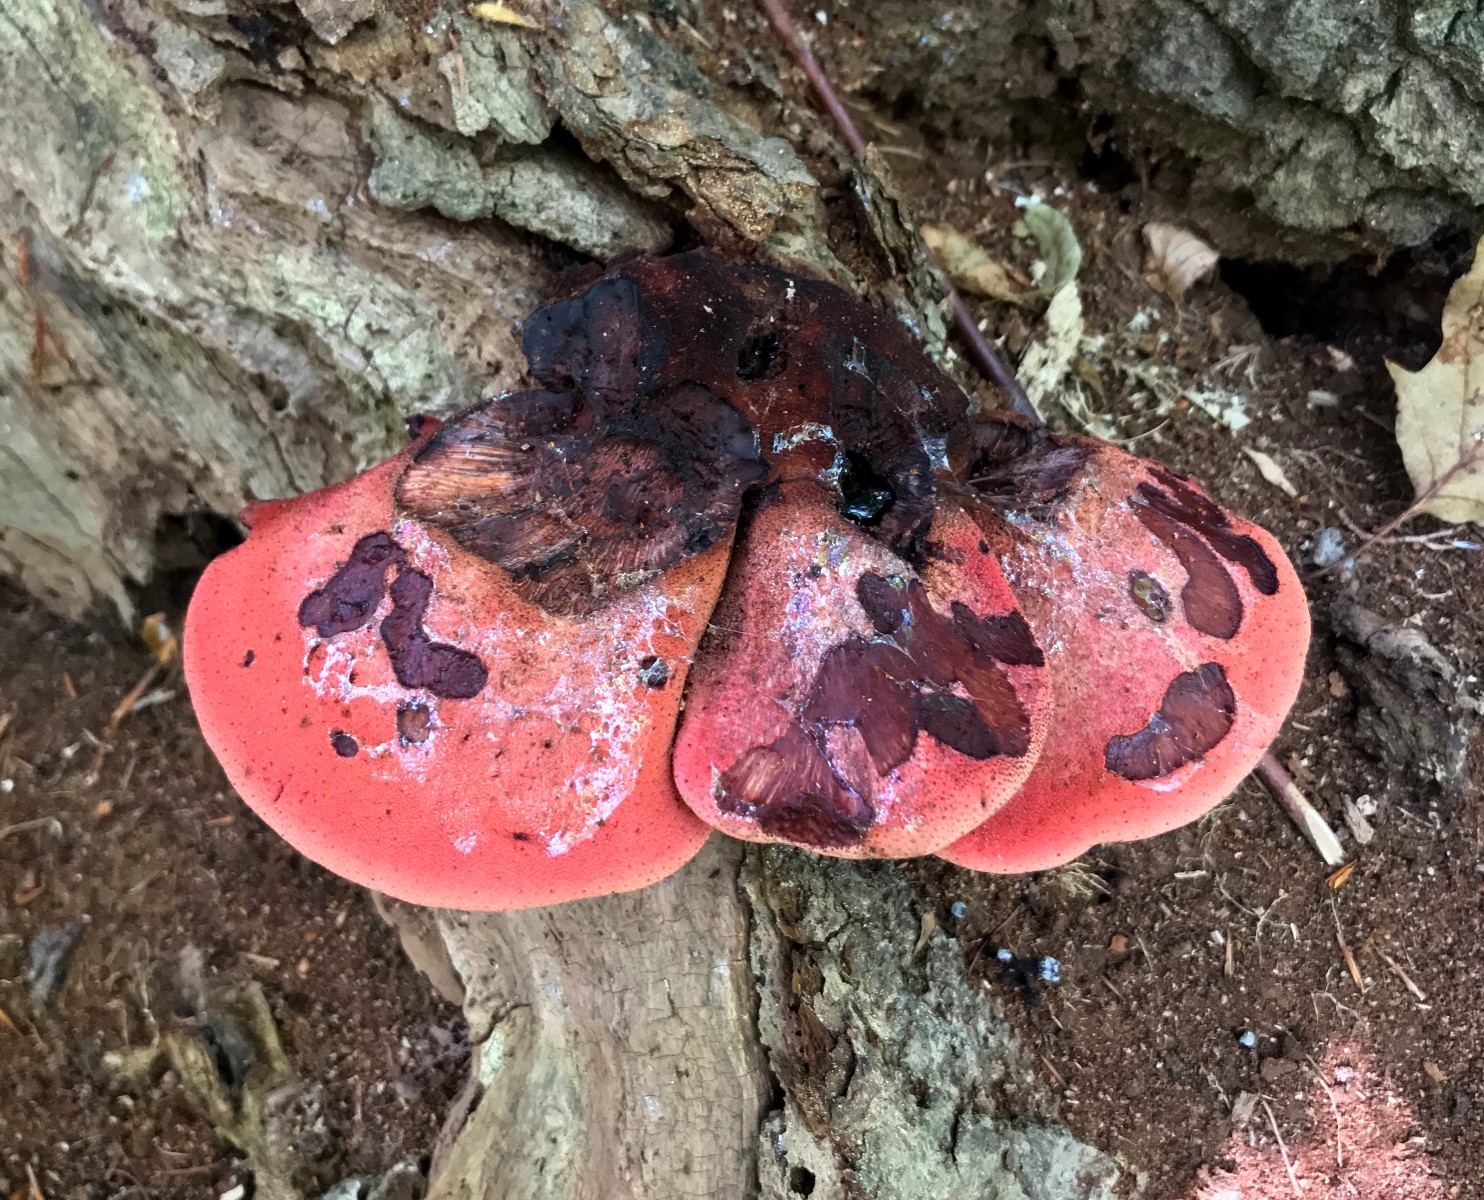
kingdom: Fungi
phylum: Basidiomycota
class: Agaricomycetes
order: Agaricales
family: Fistulinaceae
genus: Fistulina
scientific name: Fistulina hepatica
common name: oksetunge
